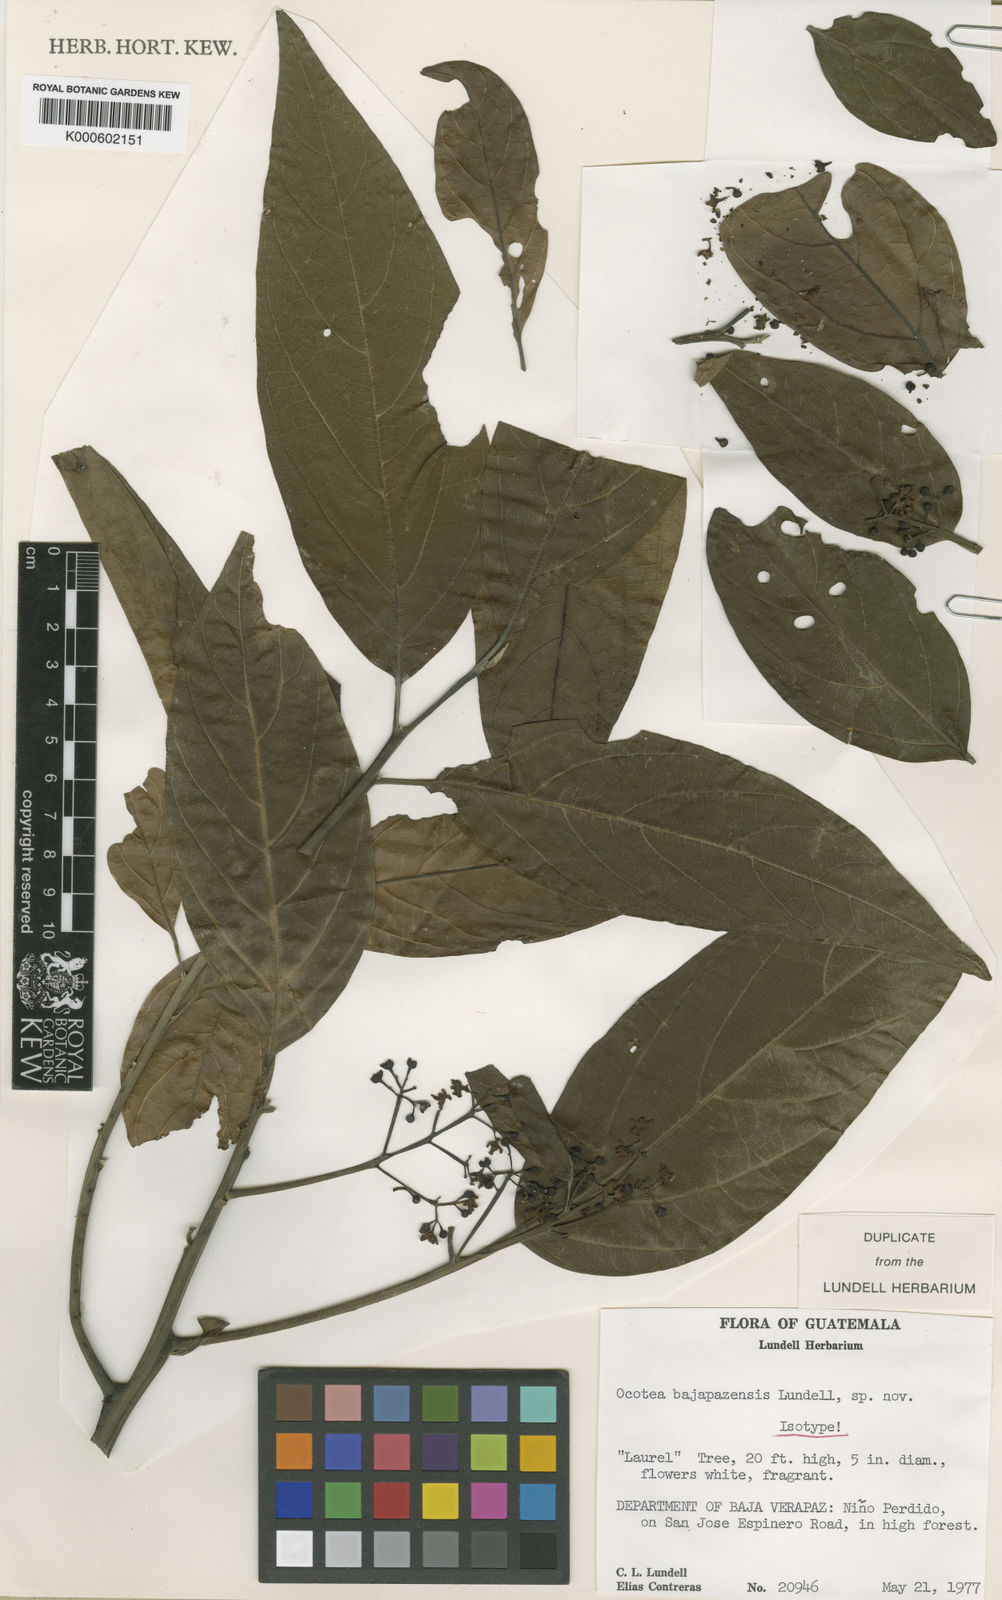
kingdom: Plantae
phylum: Tracheophyta
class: Magnoliopsida
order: Laurales
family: Lauraceae
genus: Ocotea
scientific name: Ocotea bajapazensis
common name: Laurel tree
